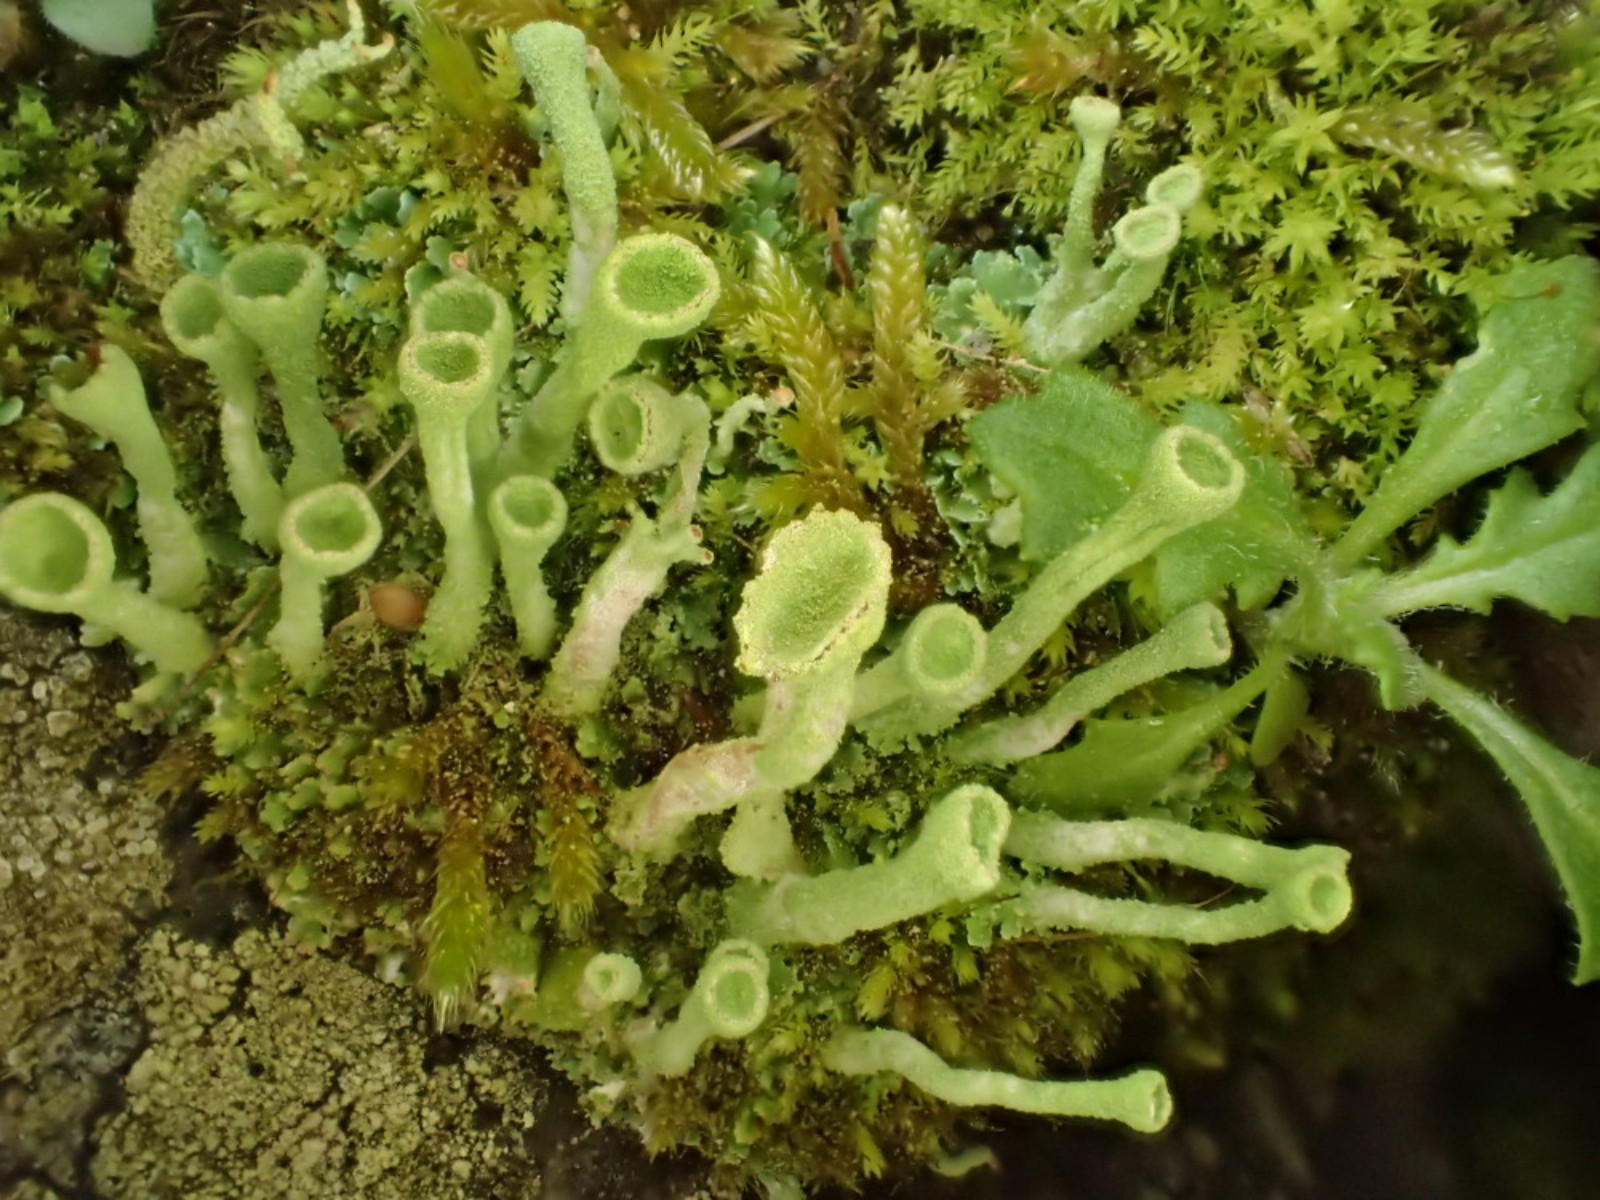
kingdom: Fungi
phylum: Ascomycota
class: Lecanoromycetes
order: Lecanorales
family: Cladoniaceae
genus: Cladonia
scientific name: Cladonia fimbriata
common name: bleggrøn bægerlav
